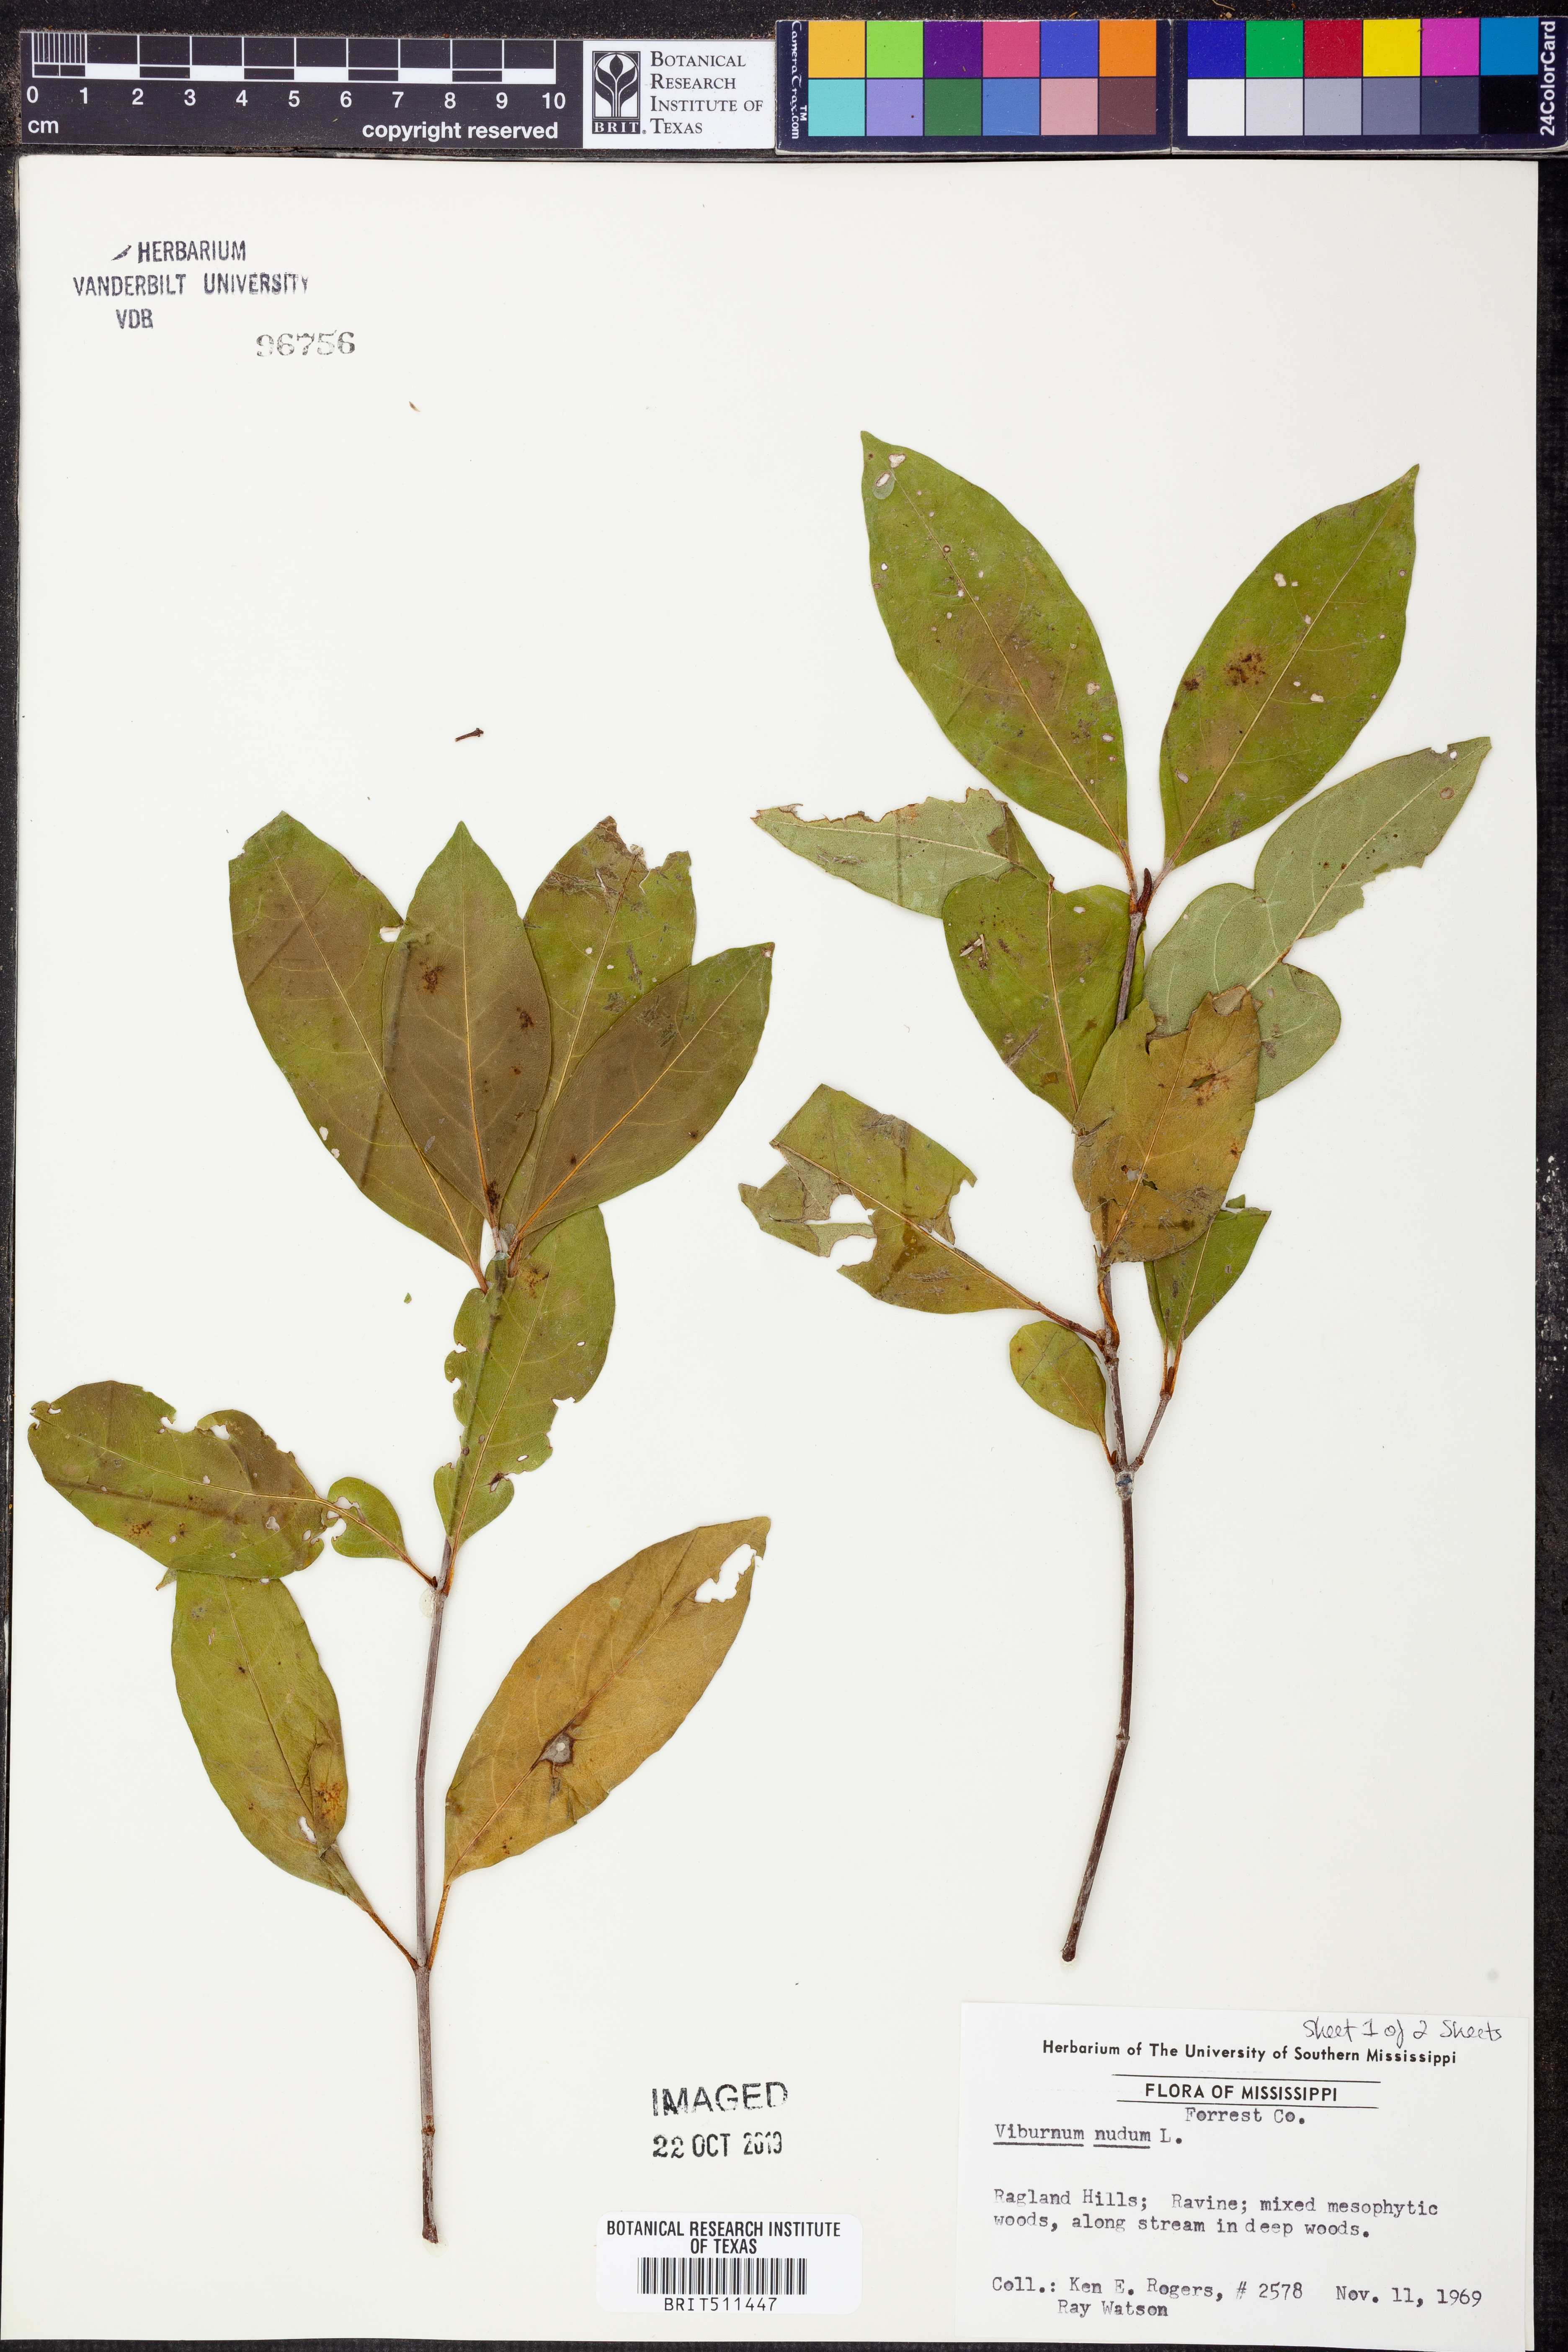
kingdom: Plantae
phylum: Tracheophyta
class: Magnoliopsida
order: Dipsacales
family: Viburnaceae
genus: Viburnum
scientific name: Viburnum nudum
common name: Possum haw
